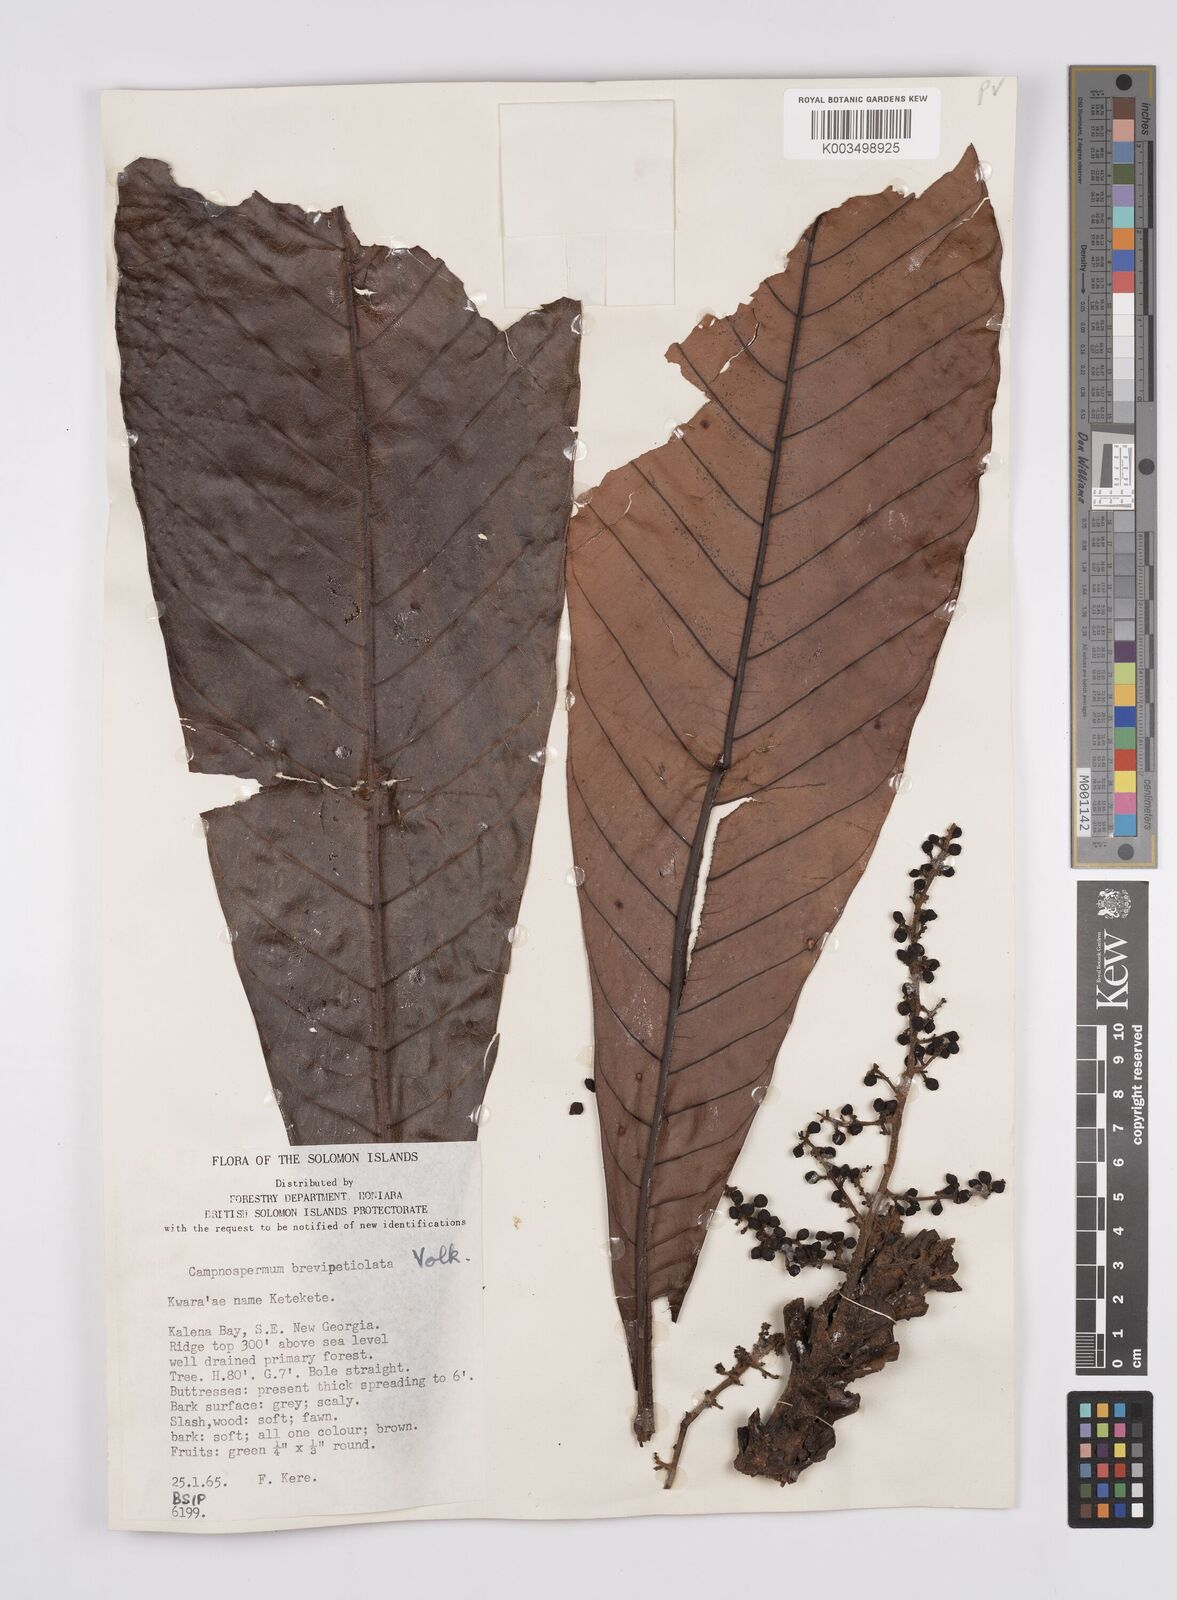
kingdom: Plantae
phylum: Tracheophyta
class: Magnoliopsida
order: Sapindales
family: Anacardiaceae
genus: Campnosperma
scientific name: Campnosperma brevipetiolatum
